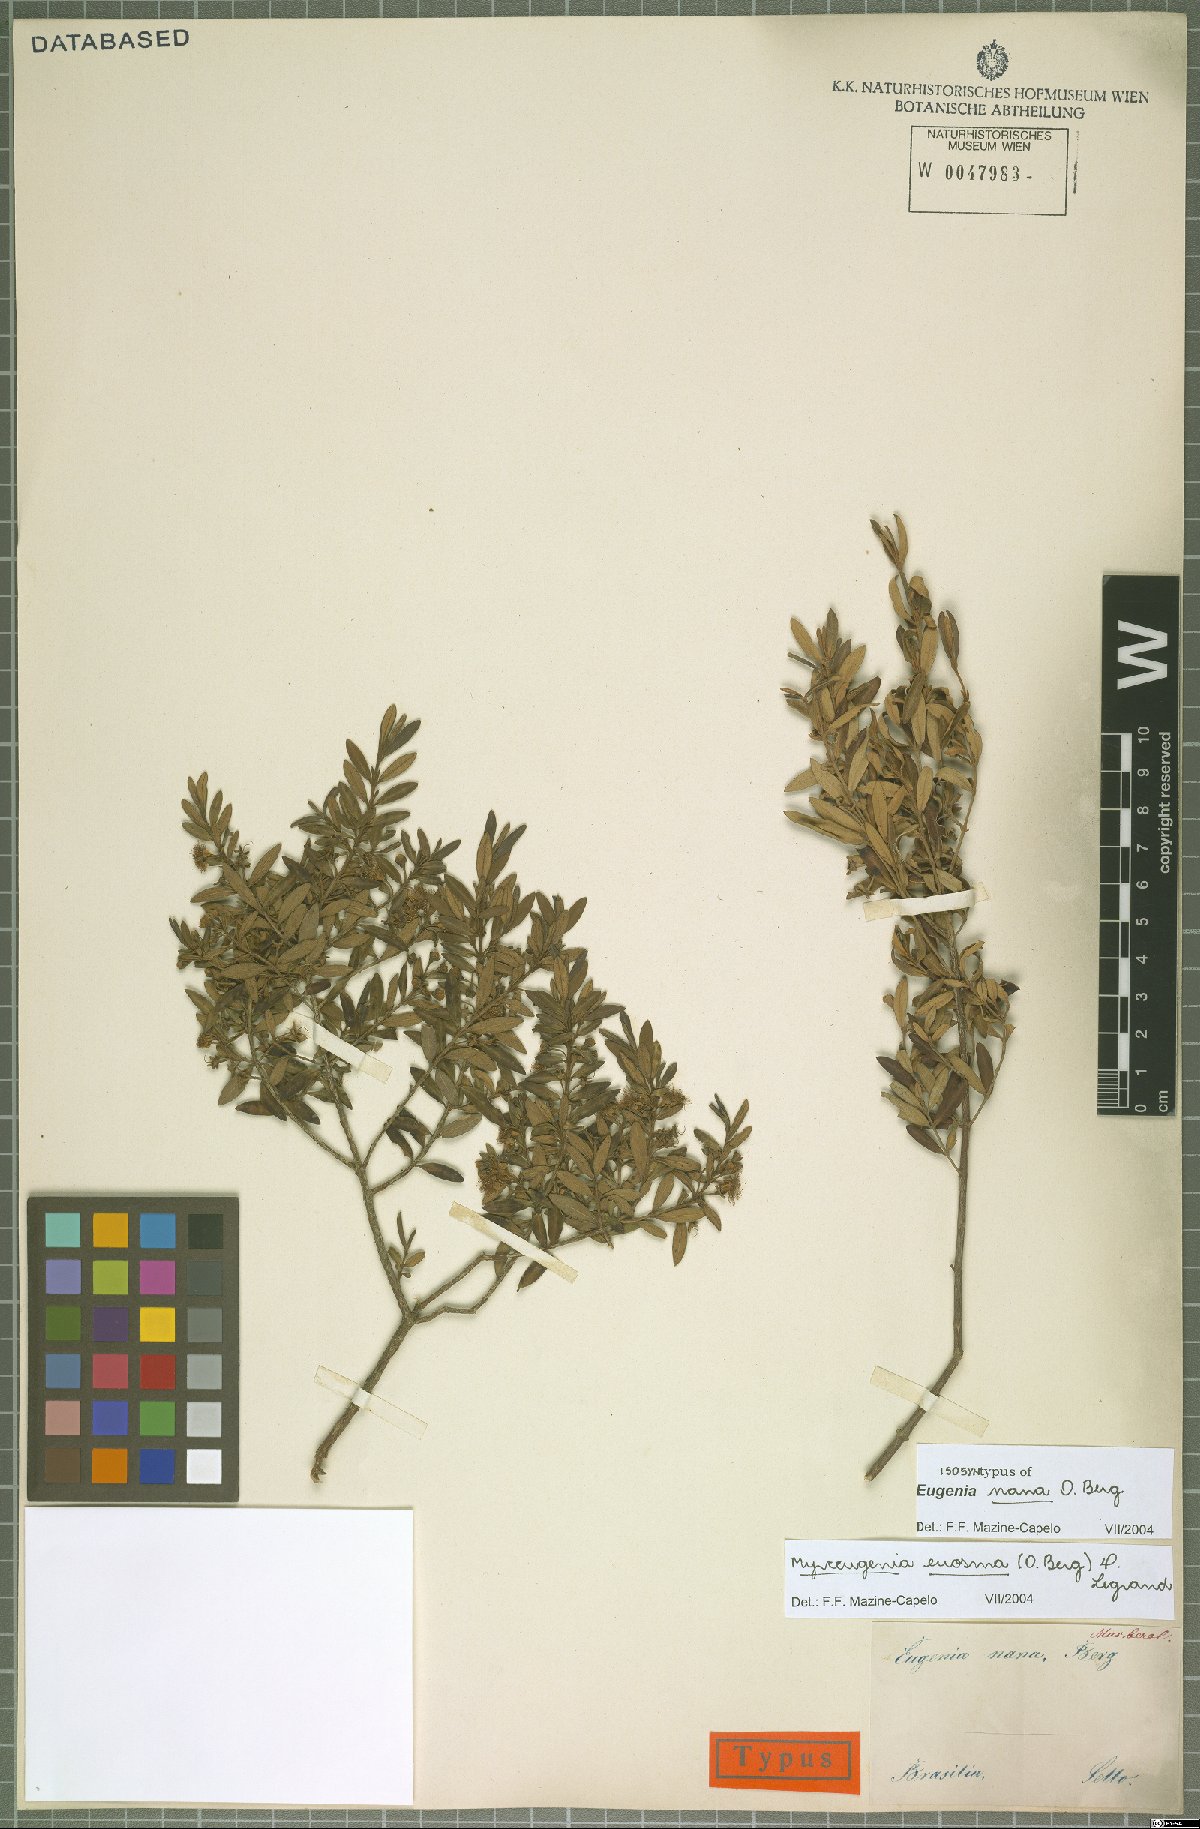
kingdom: Plantae
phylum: Tracheophyta
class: Magnoliopsida
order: Myrtales
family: Myrtaceae
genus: Myrceugenia
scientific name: Myrceugenia euosma
